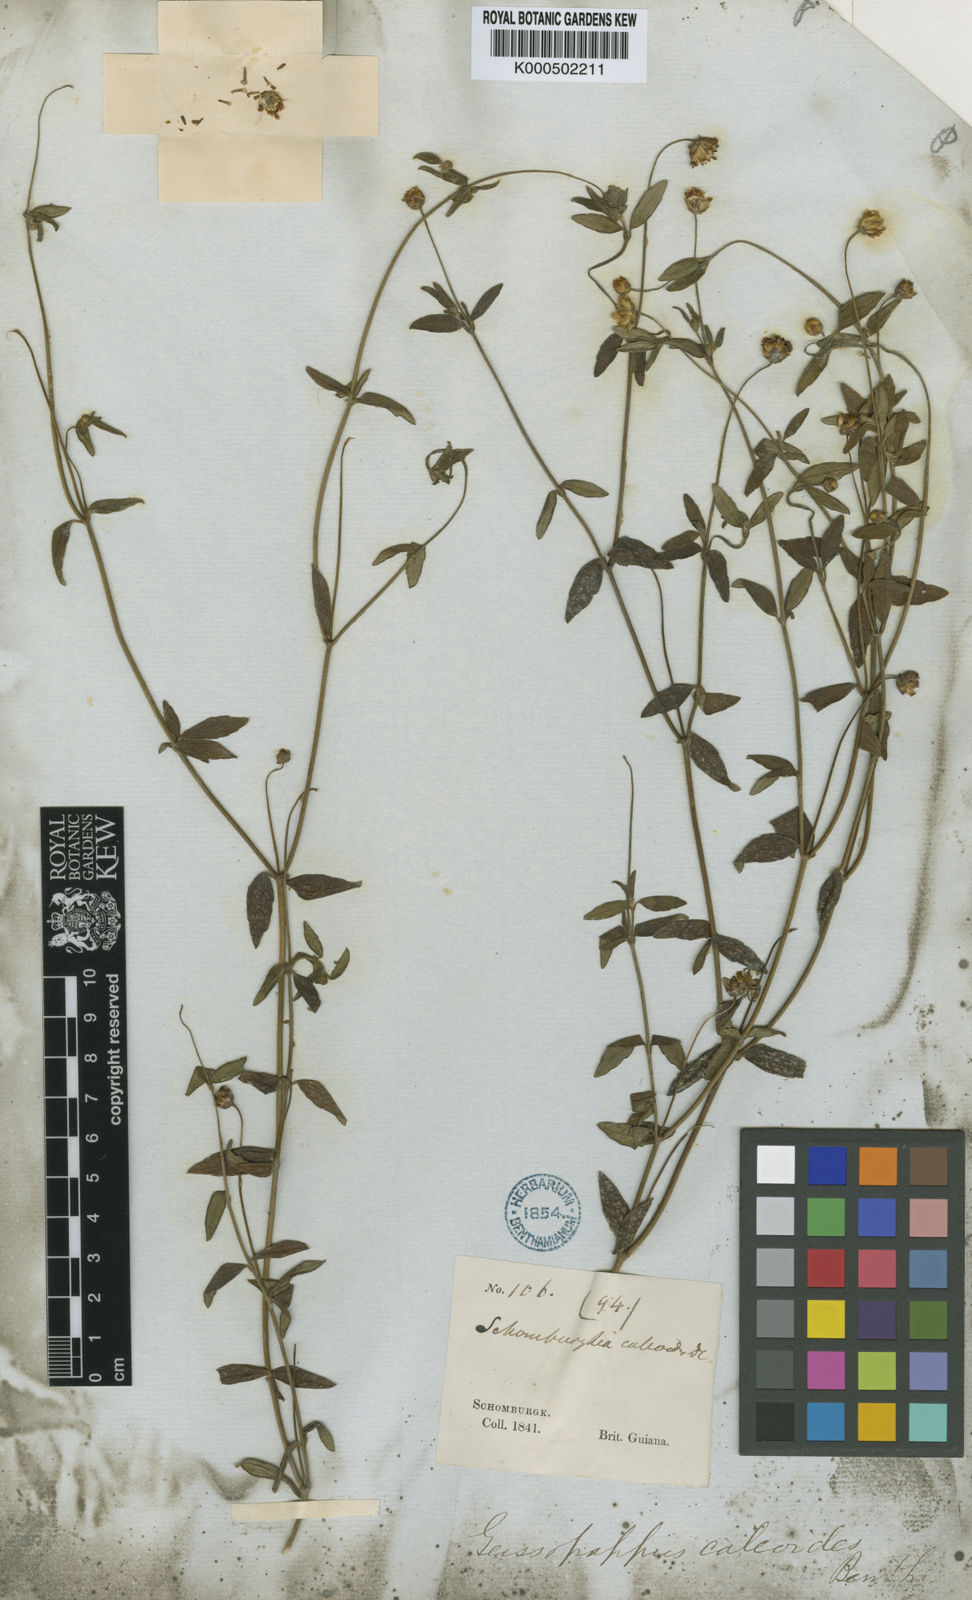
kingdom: Plantae
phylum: Tracheophyta
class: Magnoliopsida
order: Asterales
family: Asteraceae
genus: Calea
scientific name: Calea caleoides
